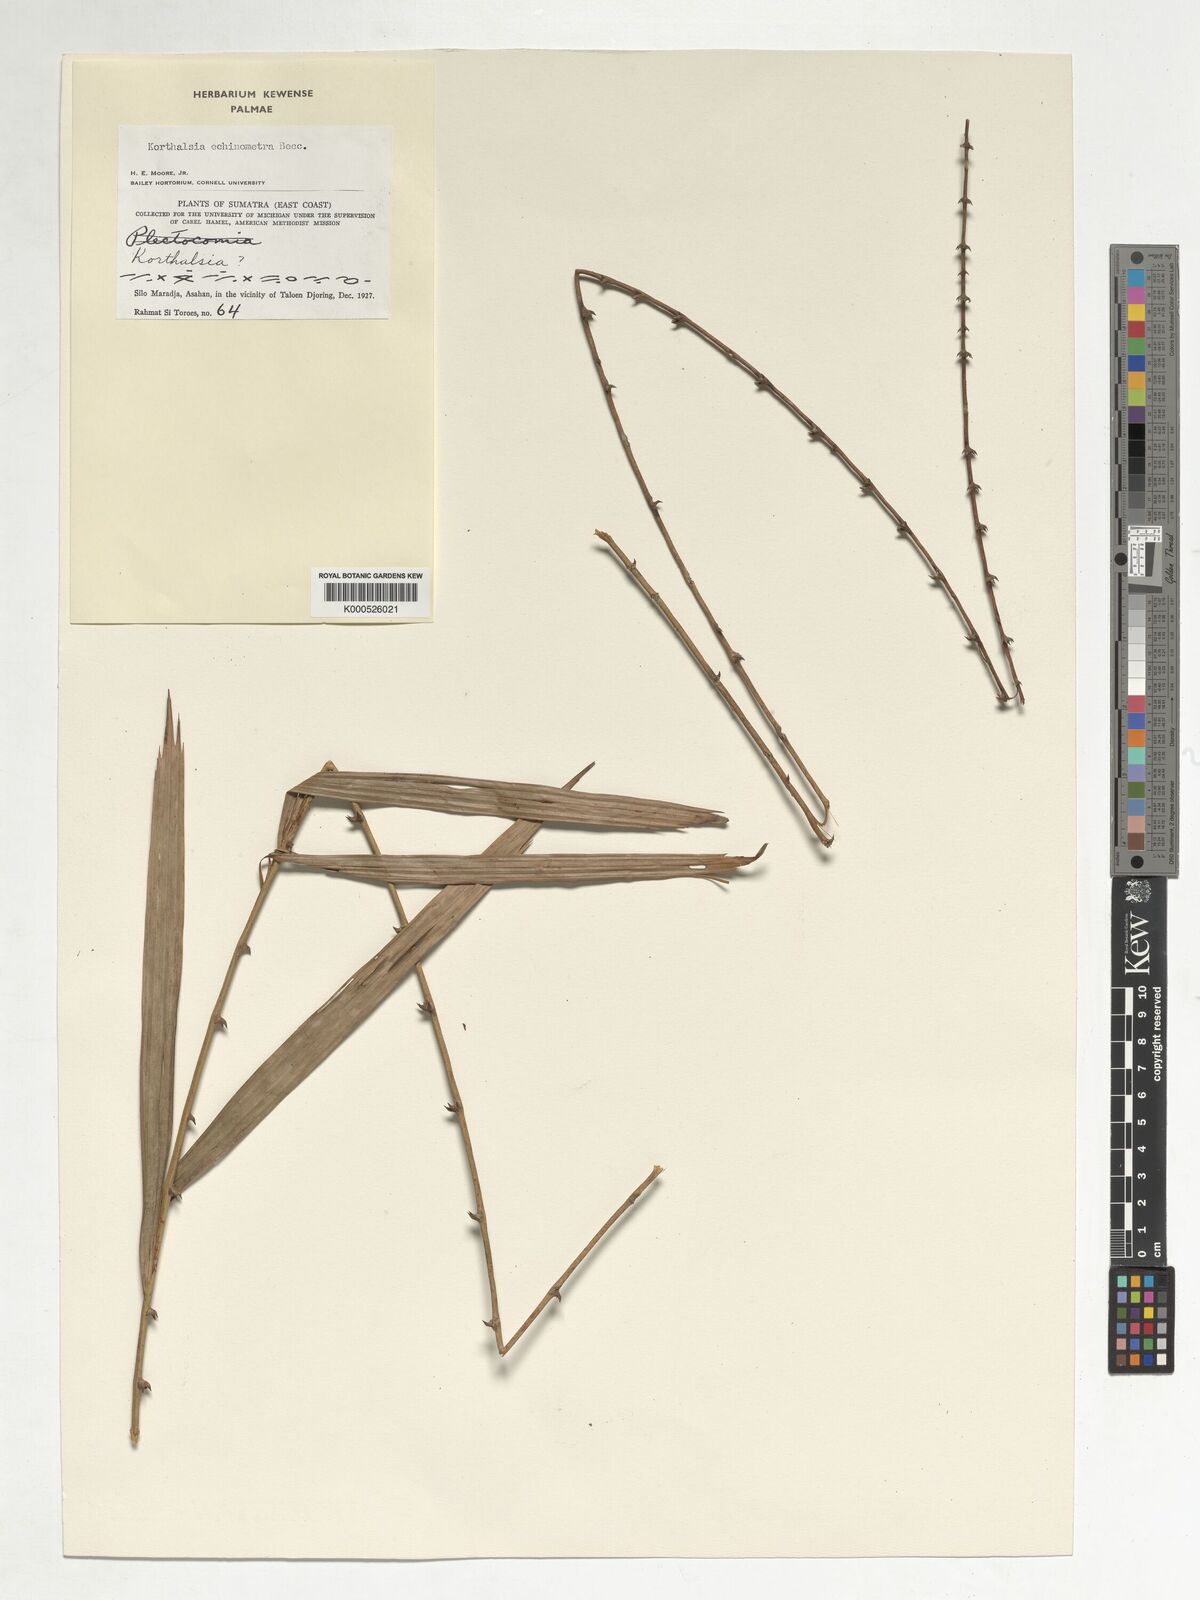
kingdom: Plantae
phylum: Tracheophyta
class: Liliopsida
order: Arecales
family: Arecaceae
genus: Korthalsia
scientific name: Korthalsia echinometra
